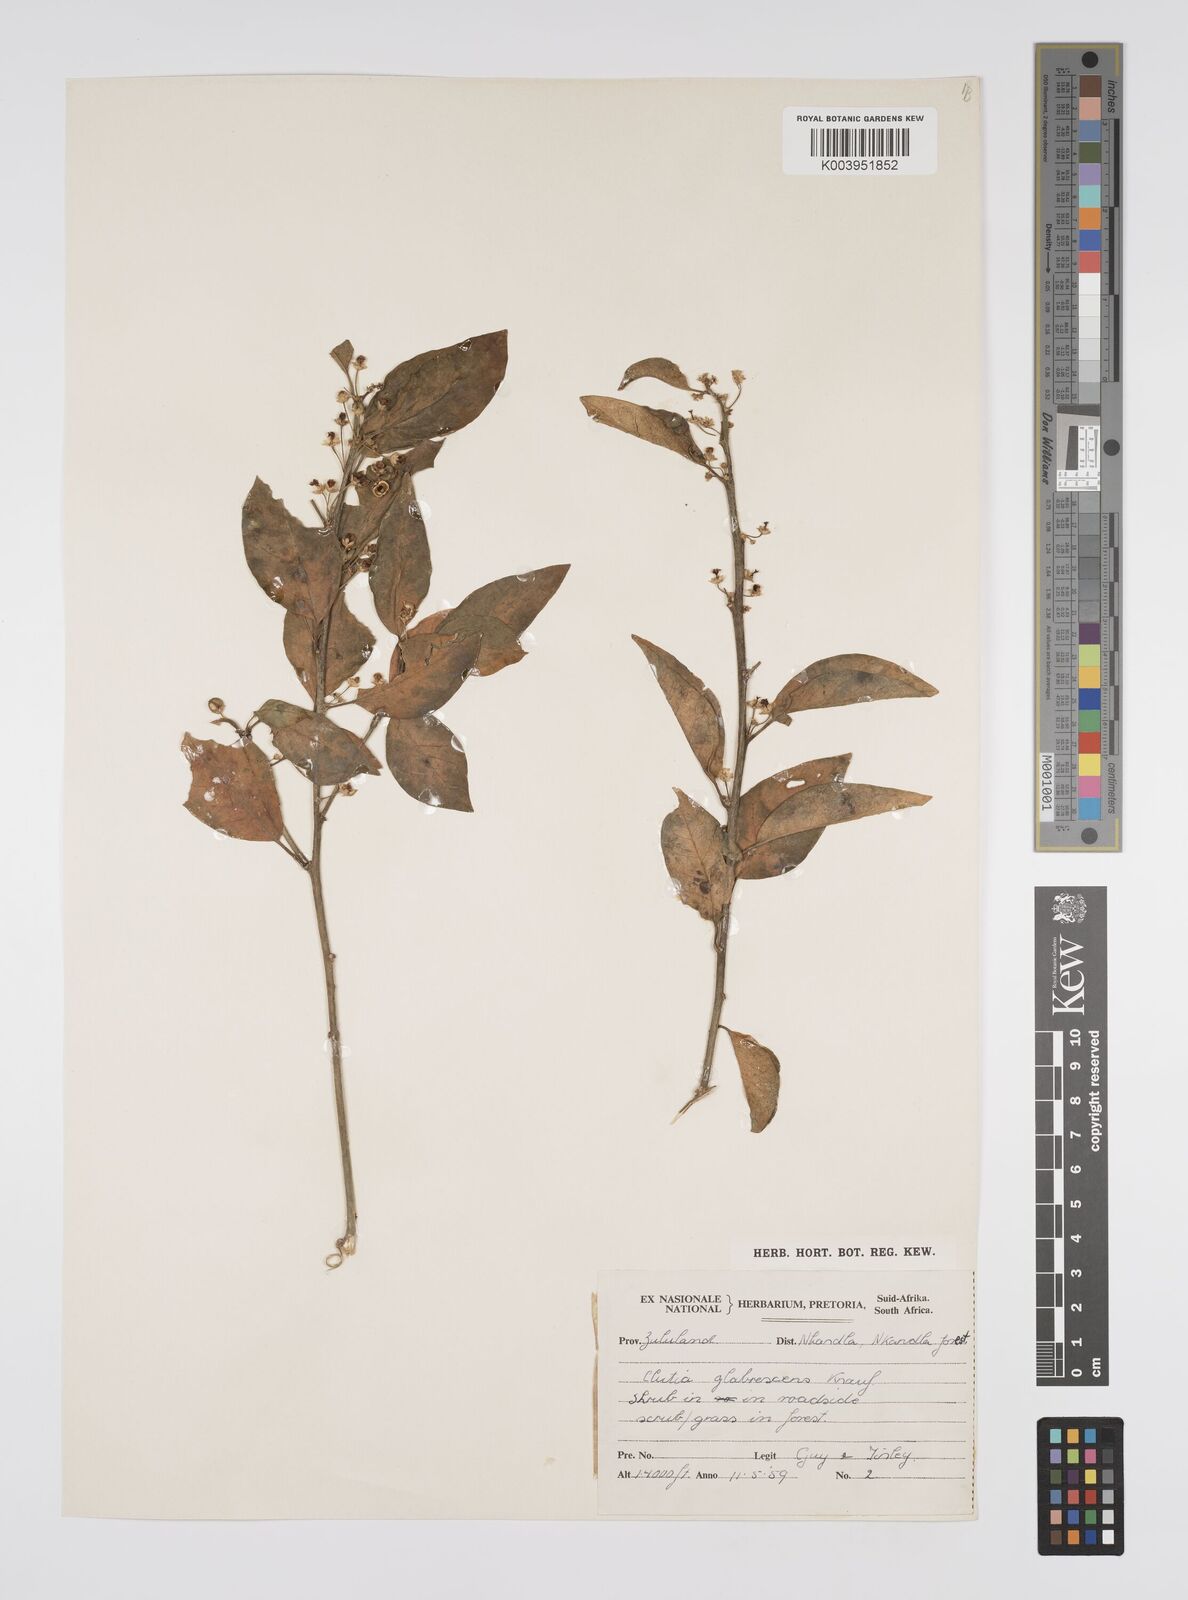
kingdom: Plantae
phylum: Tracheophyta
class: Magnoliopsida
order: Malpighiales
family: Peraceae
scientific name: Peraceae
